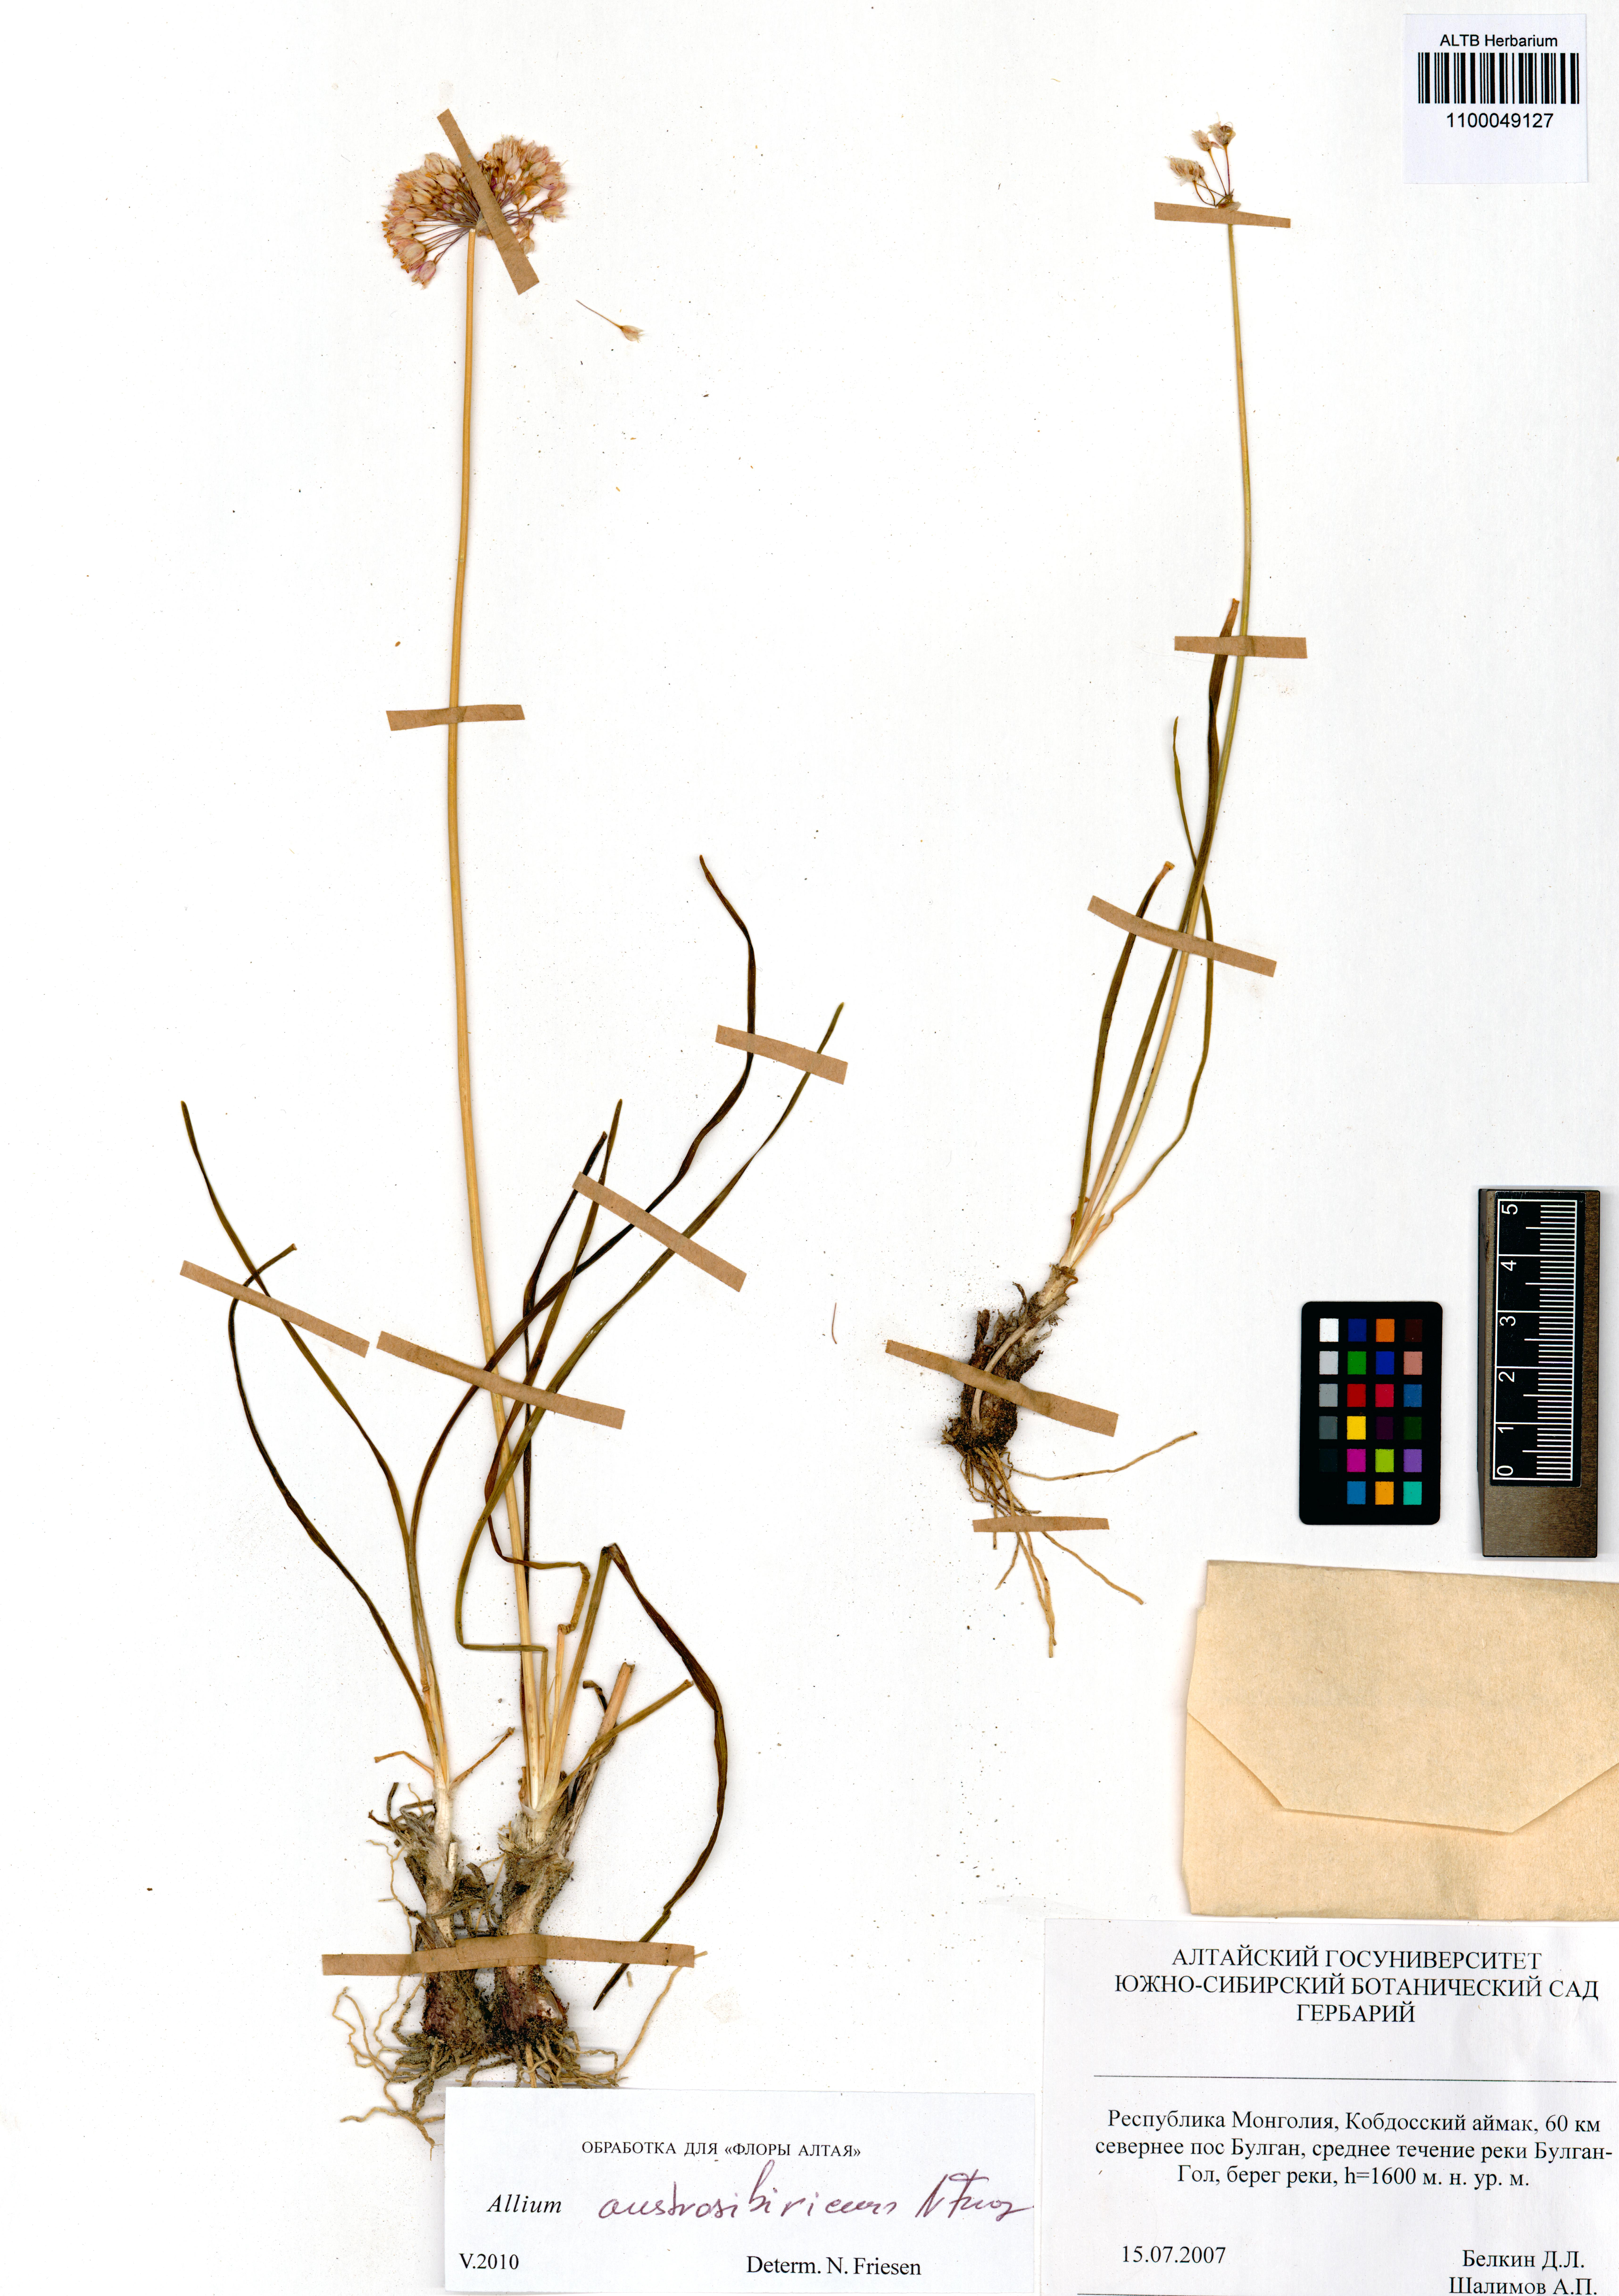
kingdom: Plantae
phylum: Tracheophyta
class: Liliopsida
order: Asparagales
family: Amaryllidaceae
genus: Allium
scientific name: Allium austrosibiricum
